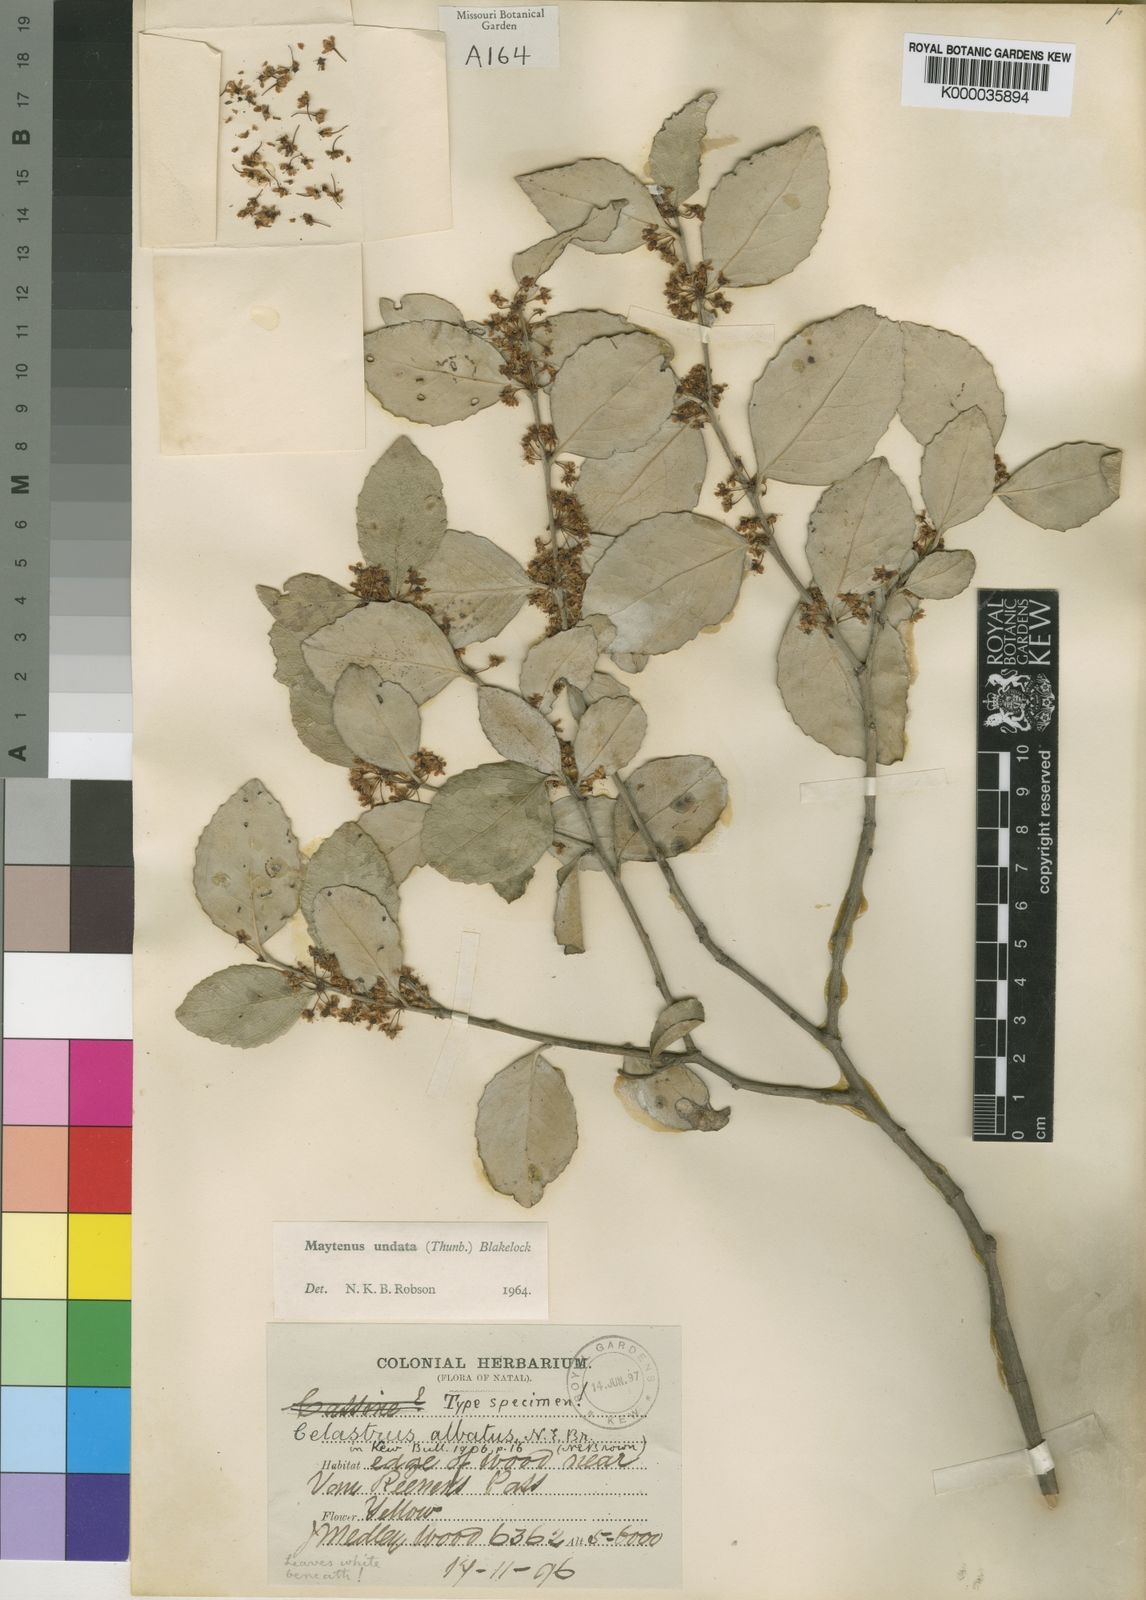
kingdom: Plantae
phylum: Tracheophyta
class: Magnoliopsida
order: Celastrales
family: Celastraceae
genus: Gymnosporia
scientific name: Gymnosporia undata
